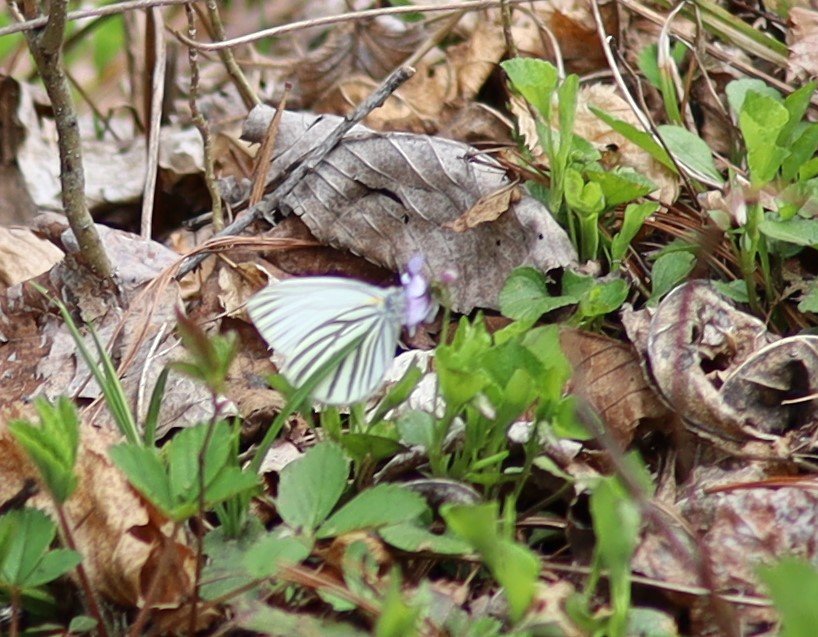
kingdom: Animalia
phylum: Arthropoda
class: Insecta
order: Lepidoptera
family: Pieridae
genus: Pieris
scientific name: Pieris oleracea
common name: Mustard White
